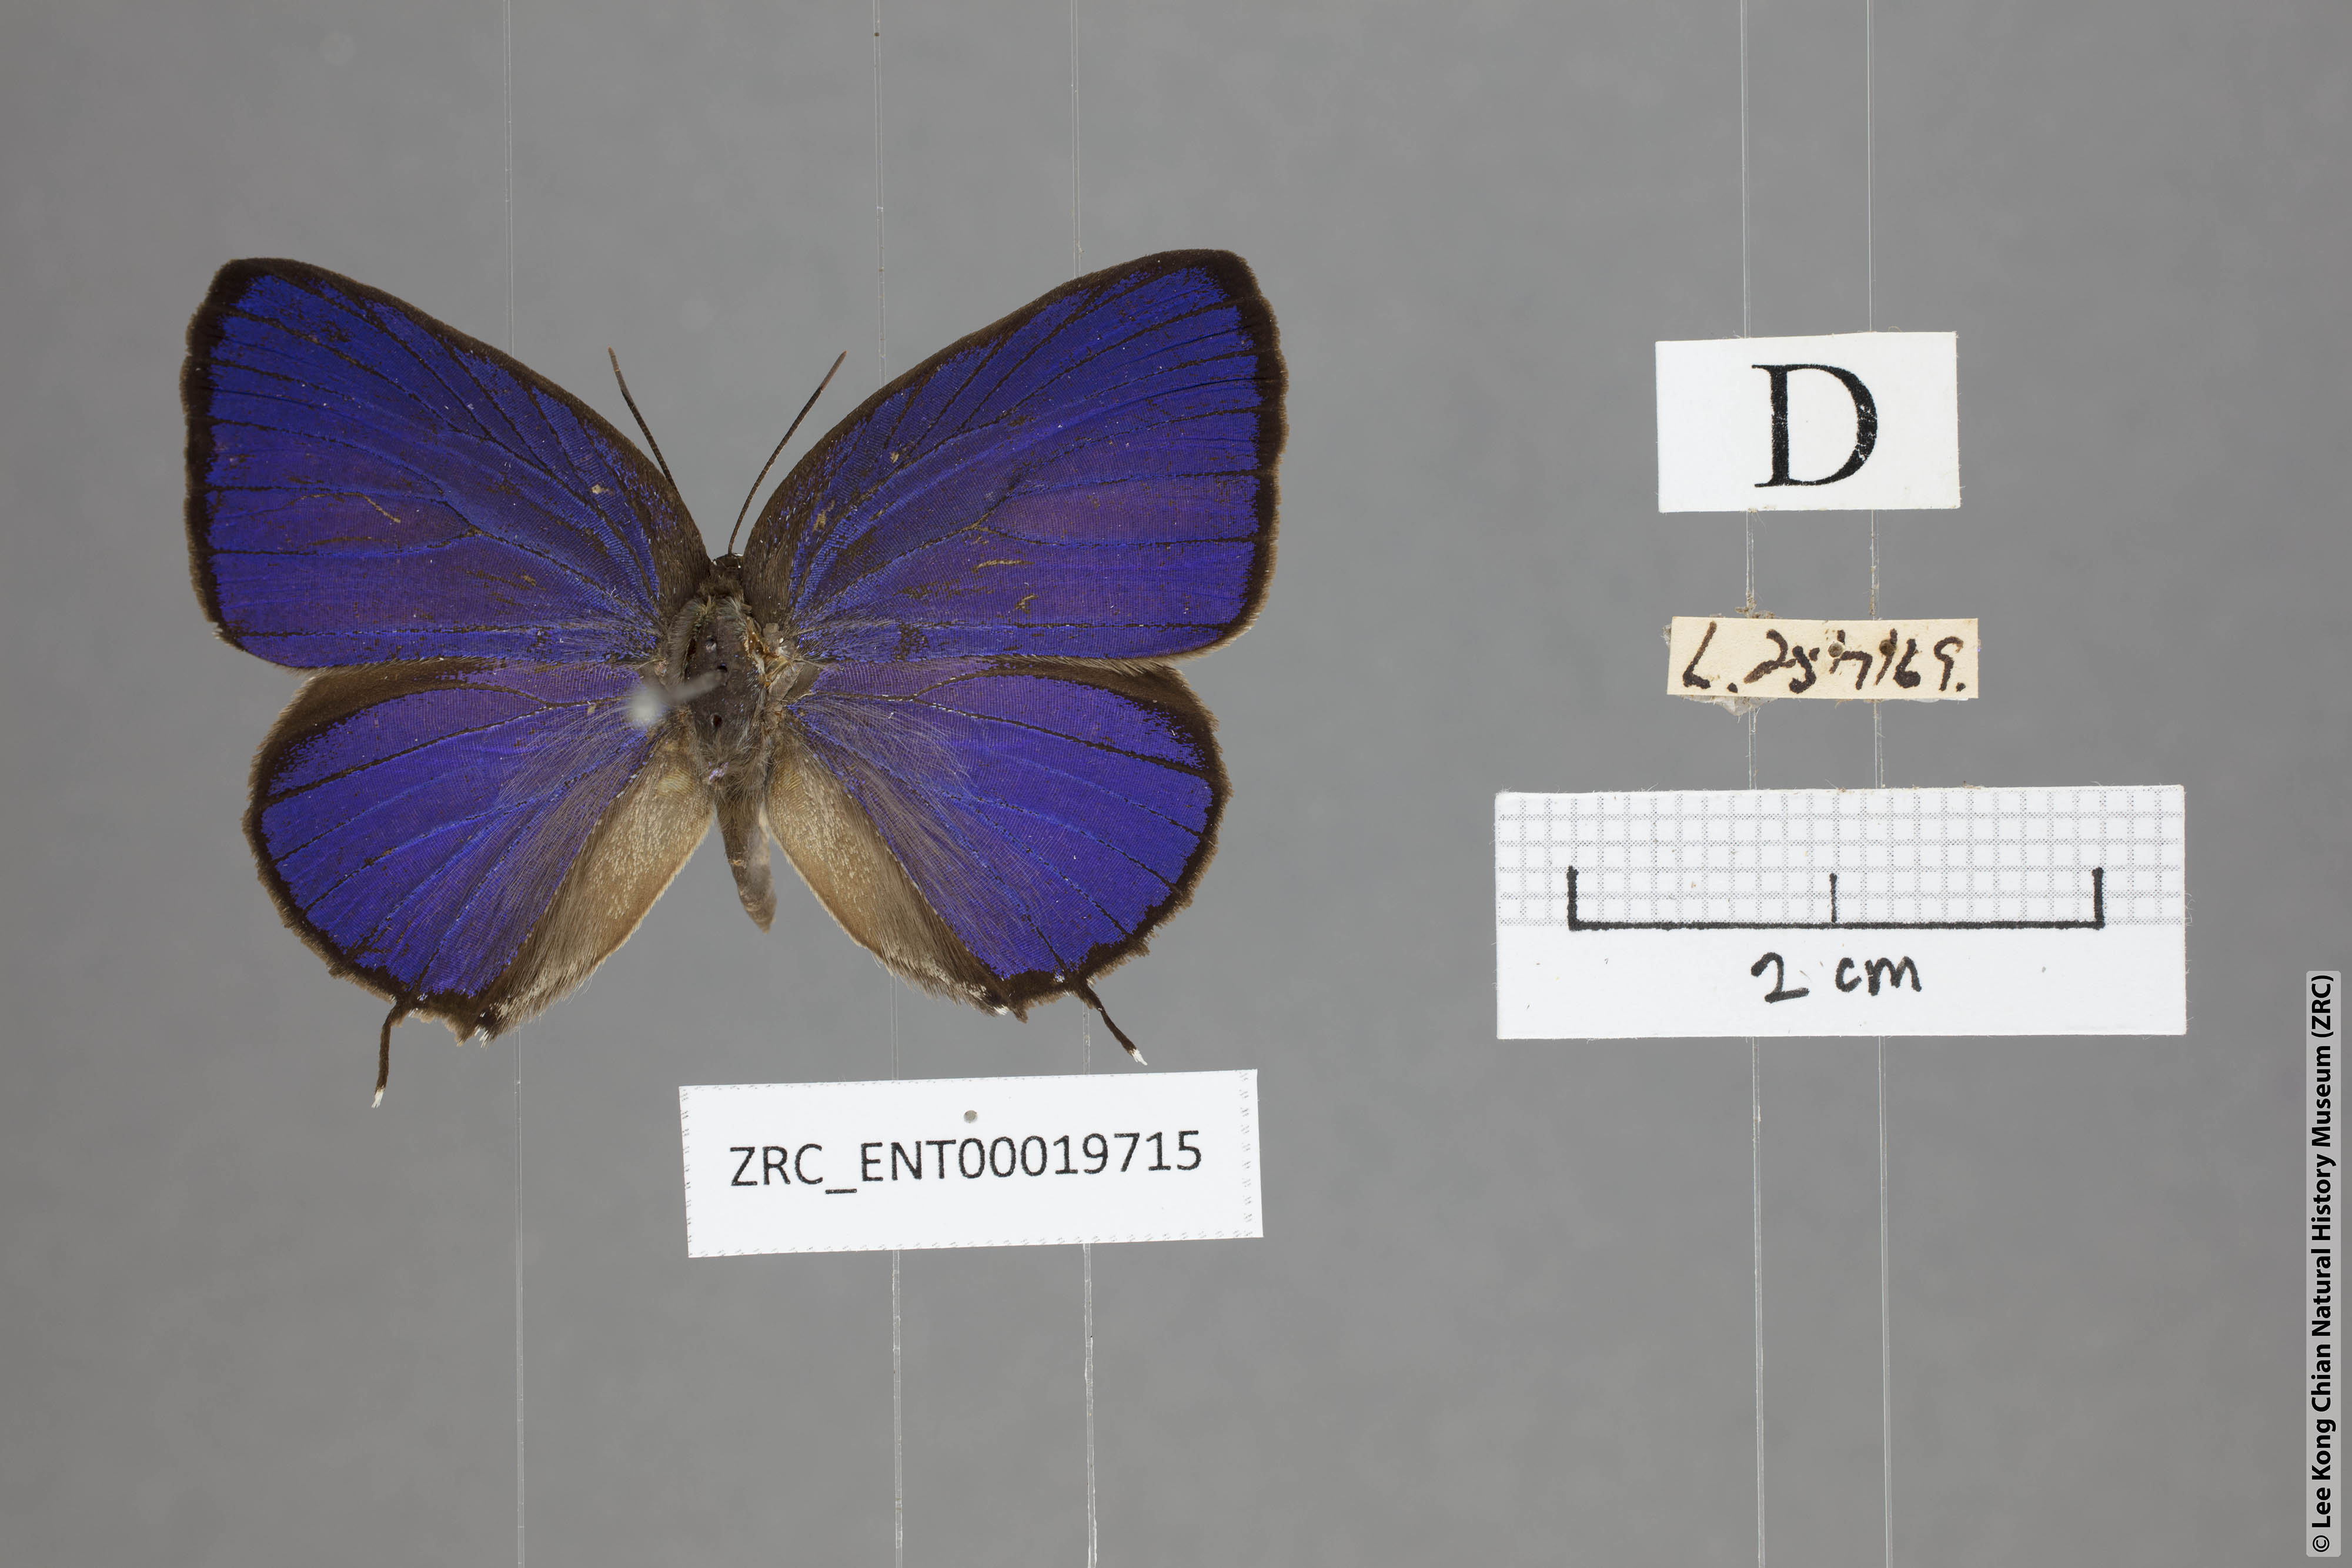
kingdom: Animalia
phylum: Arthropoda
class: Insecta
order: Lepidoptera
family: Lycaenidae
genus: Arhopala
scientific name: Arhopala myrzala
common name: Malayan oakblue
